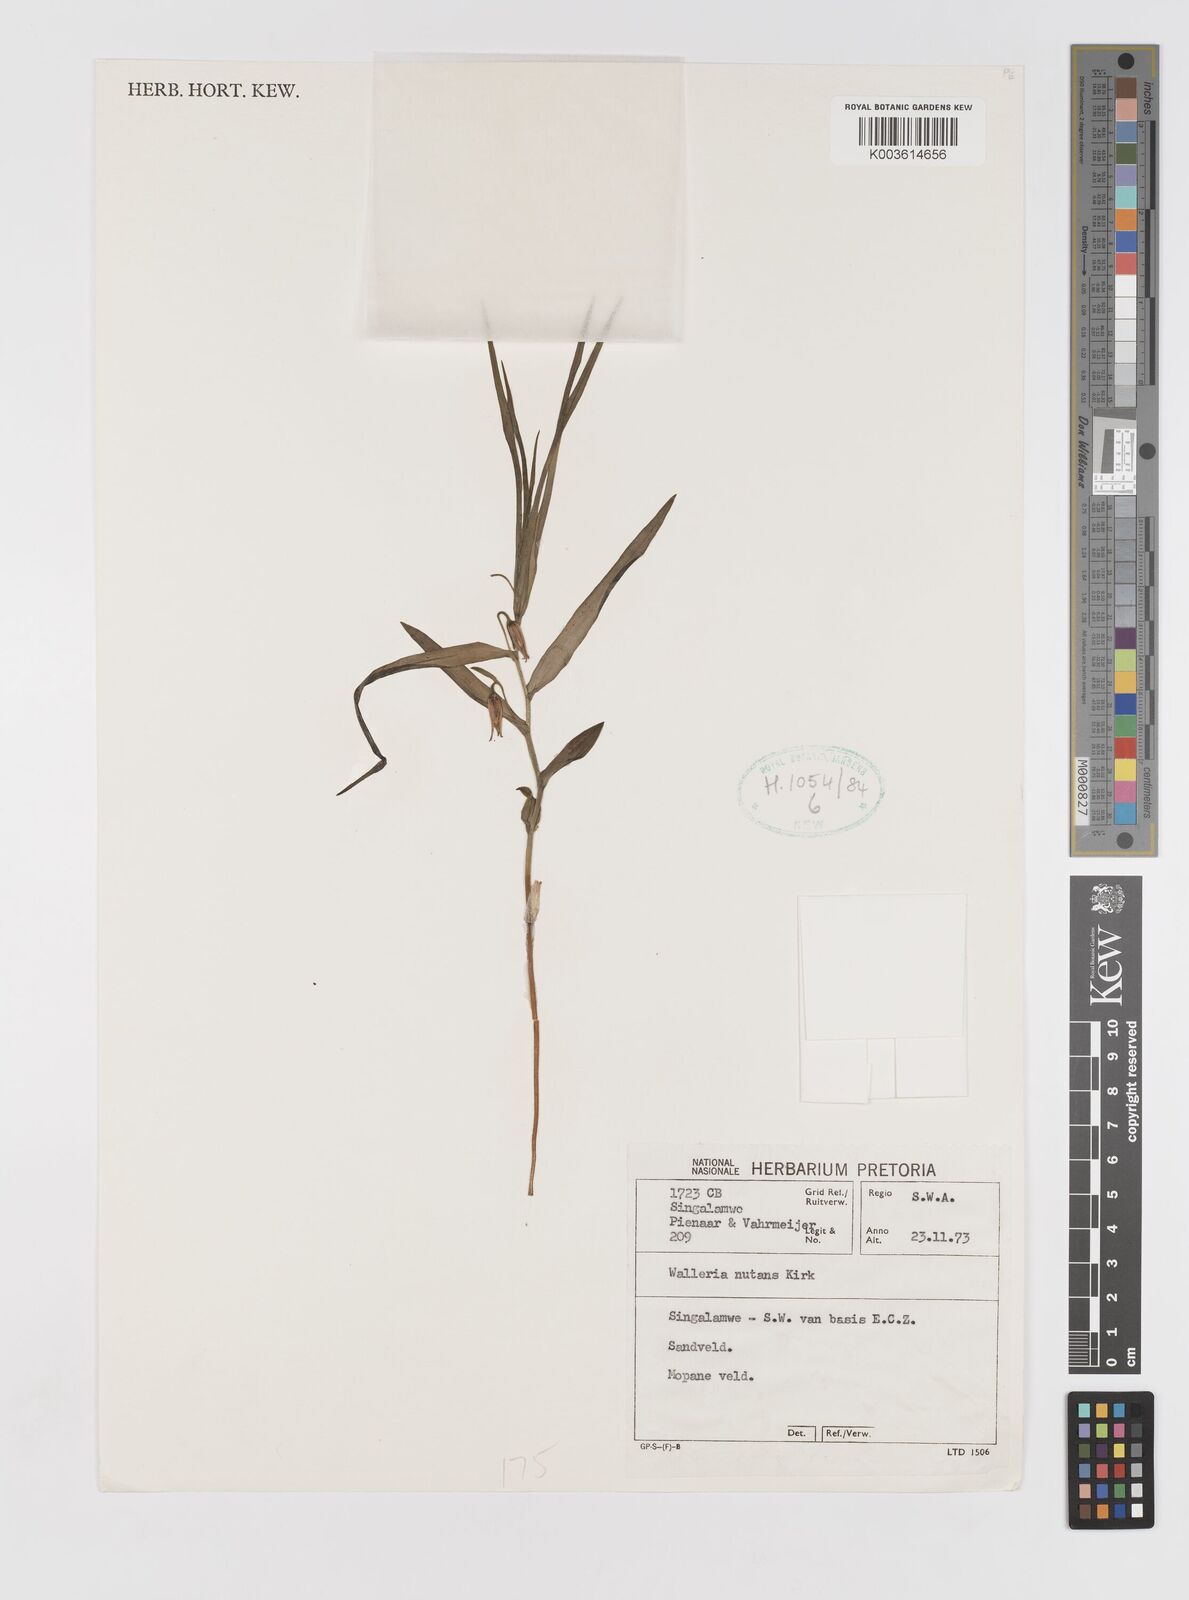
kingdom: Plantae
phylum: Tracheophyta
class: Liliopsida
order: Asparagales
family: Tecophilaeaceae
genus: Walleria
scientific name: Walleria nutans
